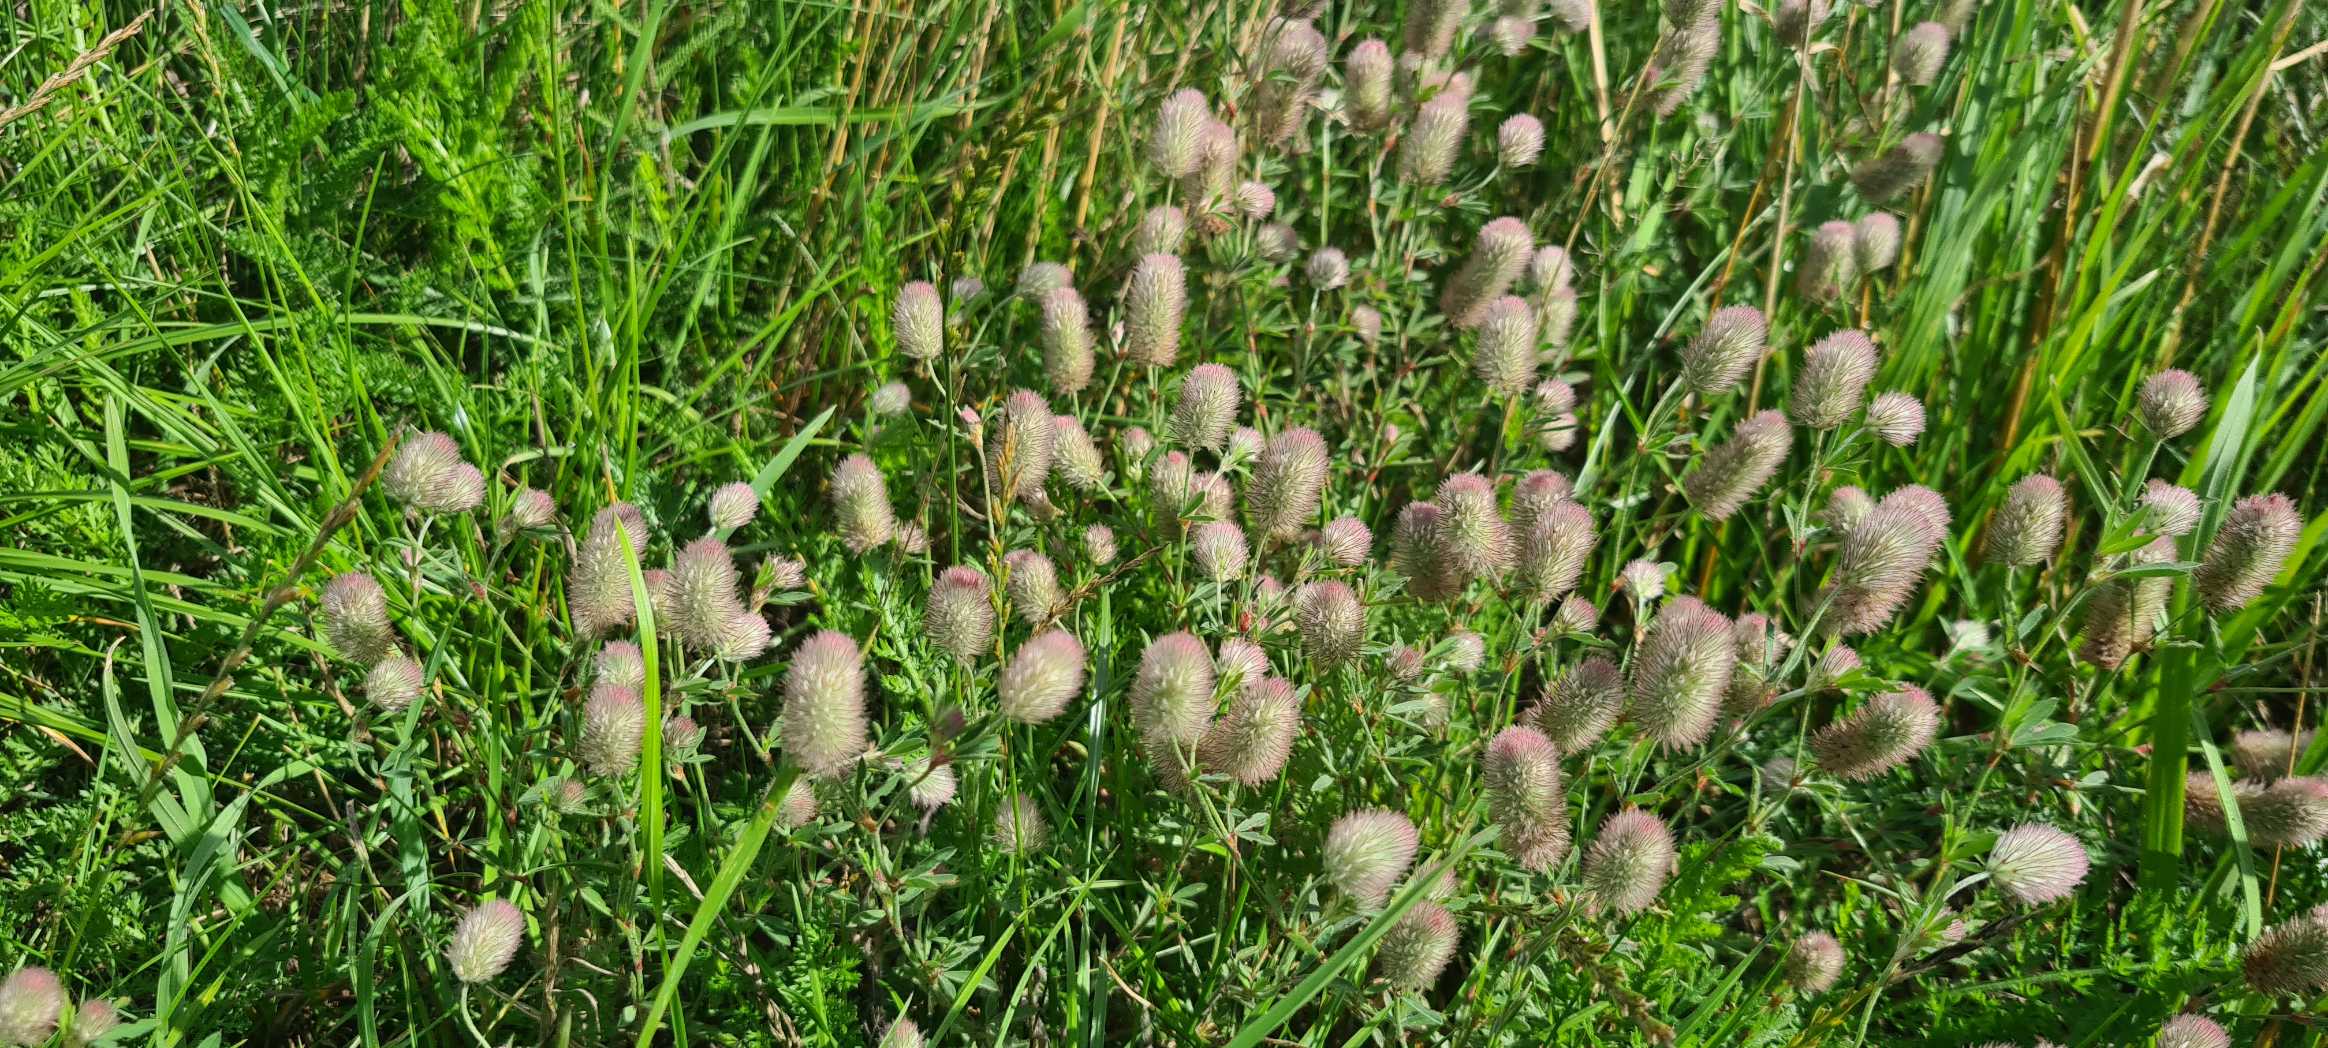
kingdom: Plantae
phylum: Tracheophyta
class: Magnoliopsida
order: Fabales
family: Fabaceae
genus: Trifolium
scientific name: Trifolium arvense
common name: Hare-kløver
